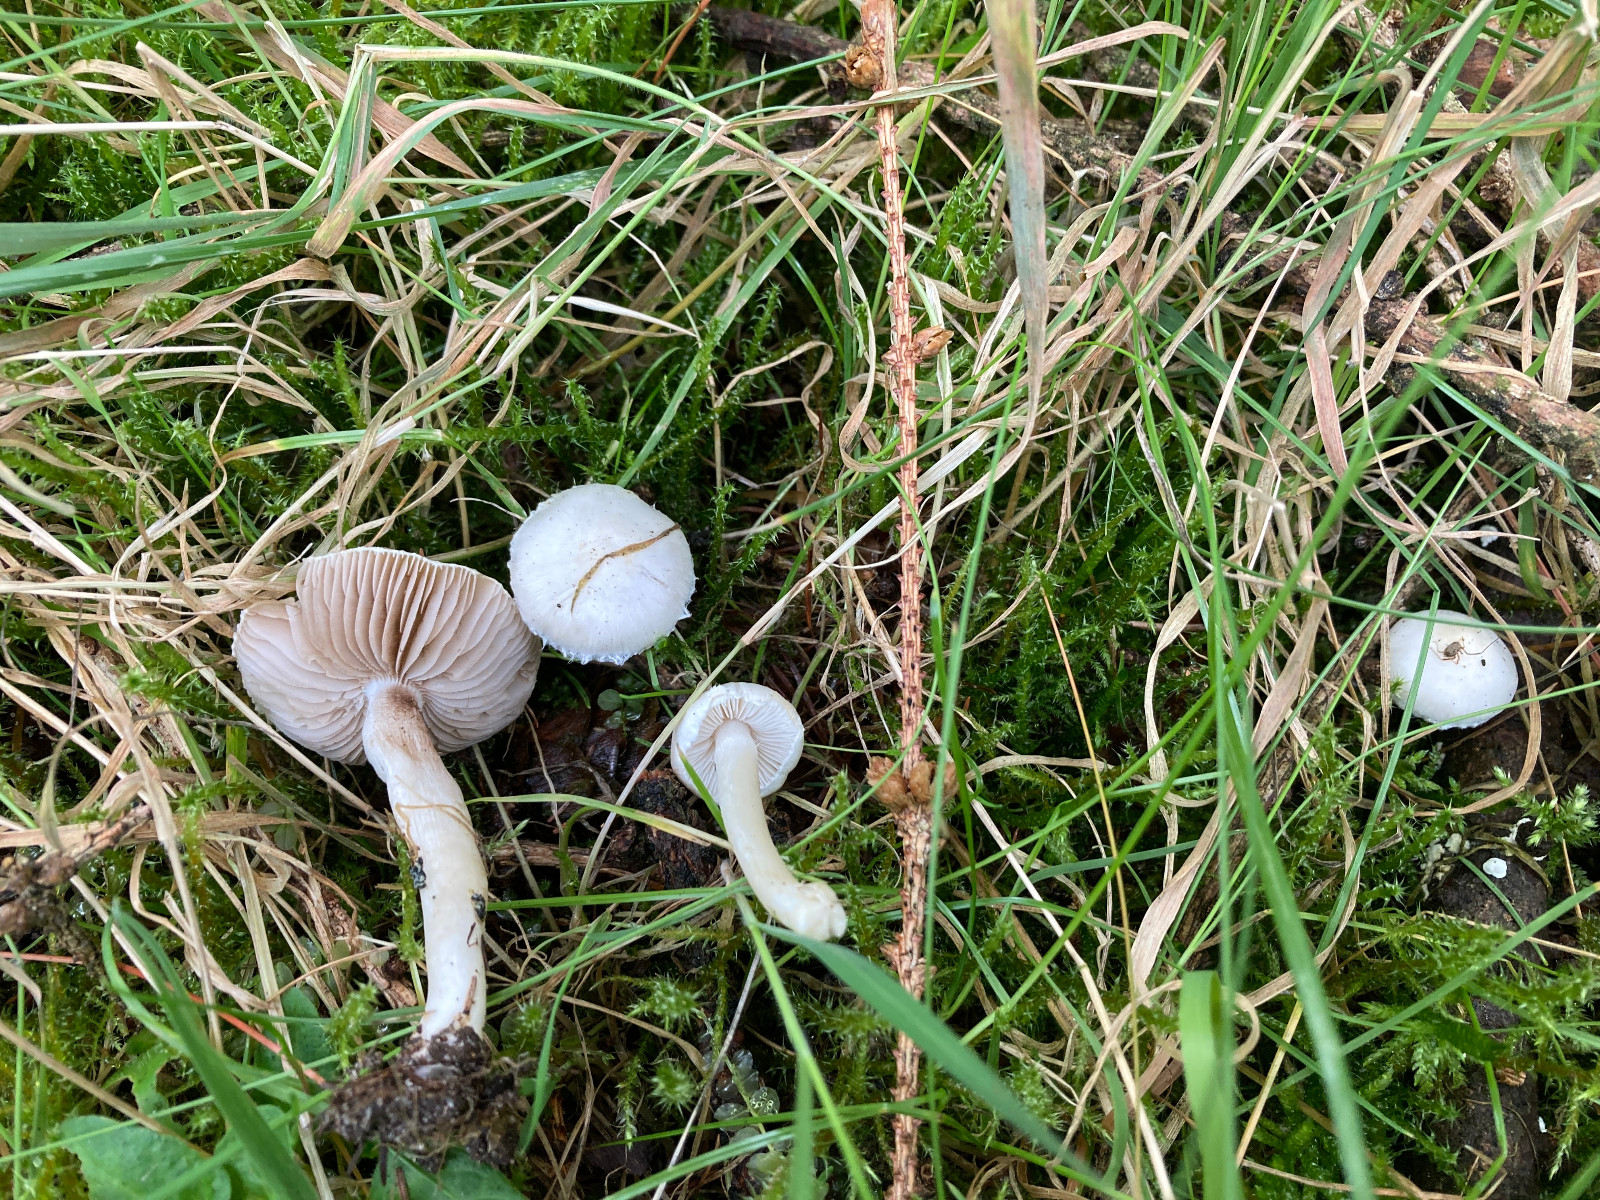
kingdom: Fungi
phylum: Basidiomycota
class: Agaricomycetes
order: Agaricales
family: Inocybaceae
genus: Inocybe
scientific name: Inocybe
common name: trævlhat
